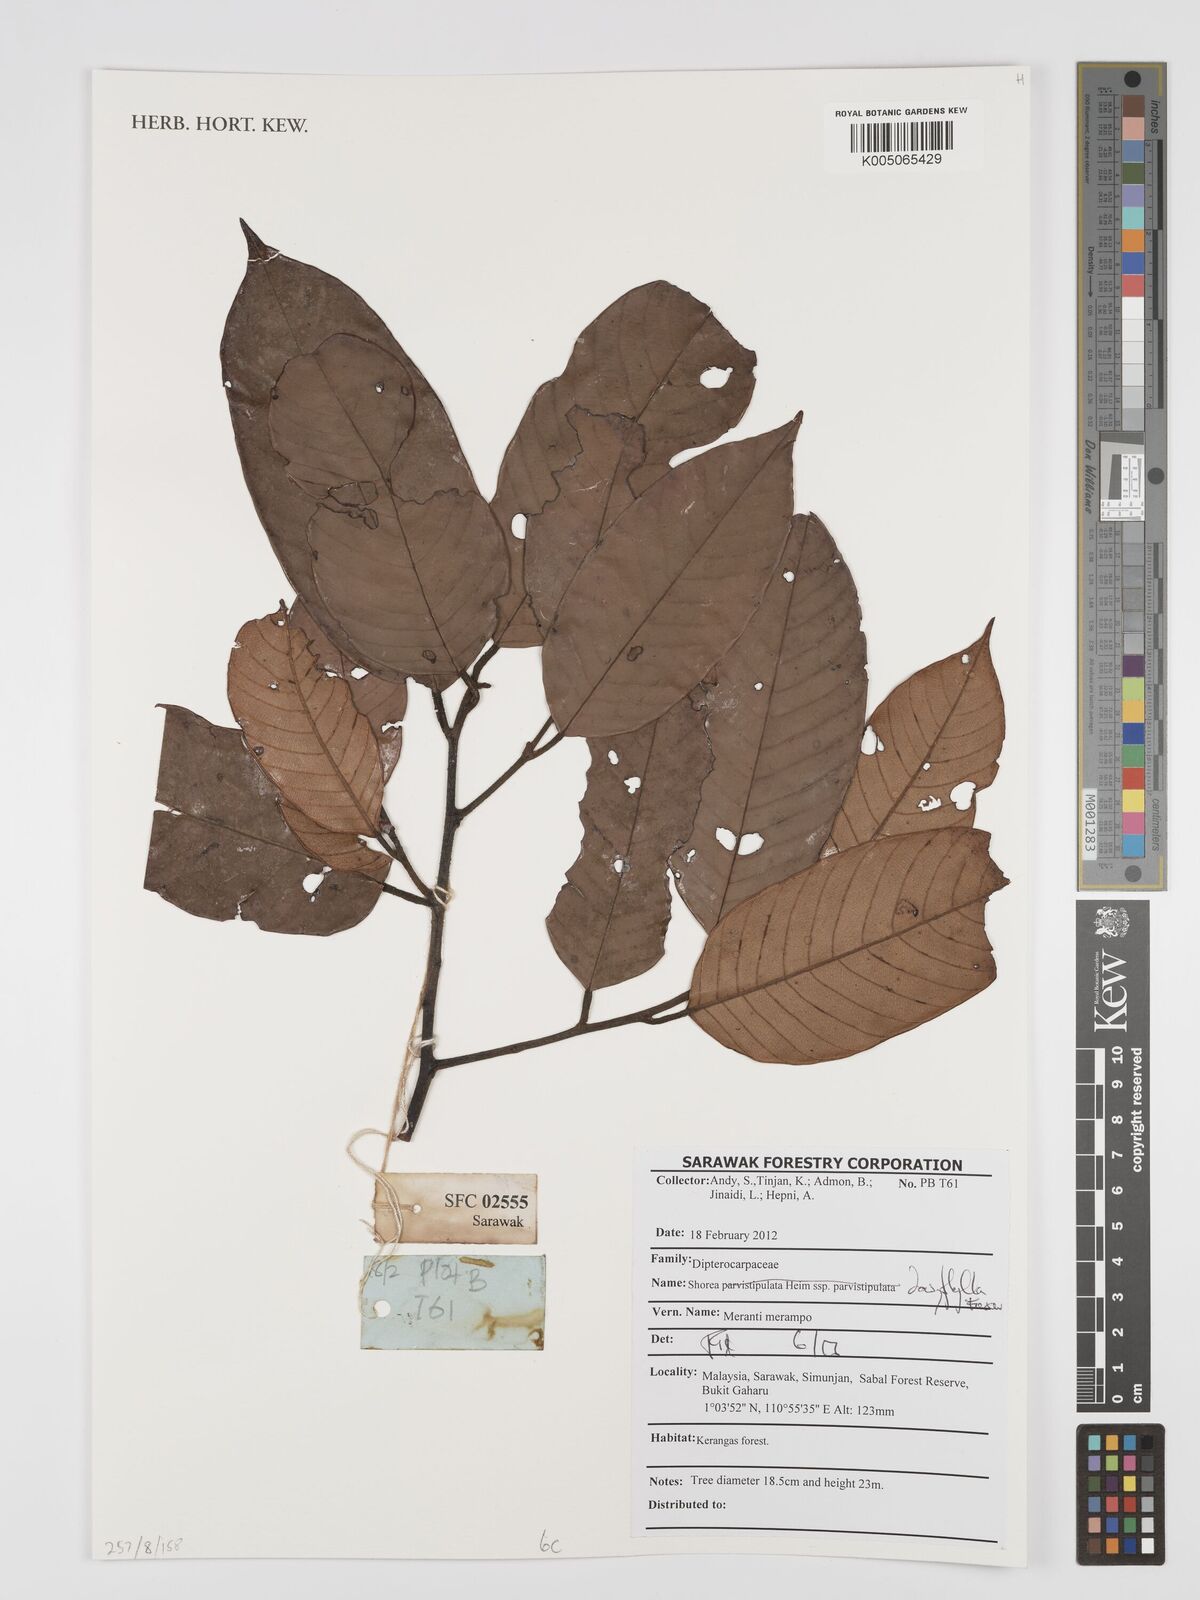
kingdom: Plantae
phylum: Tracheophyta
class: Magnoliopsida
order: Malvales
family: Dipterocarpaceae
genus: Shorea
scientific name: Shorea dasyphylla
